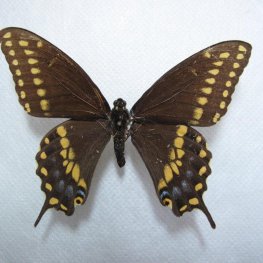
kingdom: Animalia
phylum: Arthropoda
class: Insecta
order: Lepidoptera
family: Papilionidae
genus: Papilio
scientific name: Papilio polyxenes
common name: Black Swallowtail
